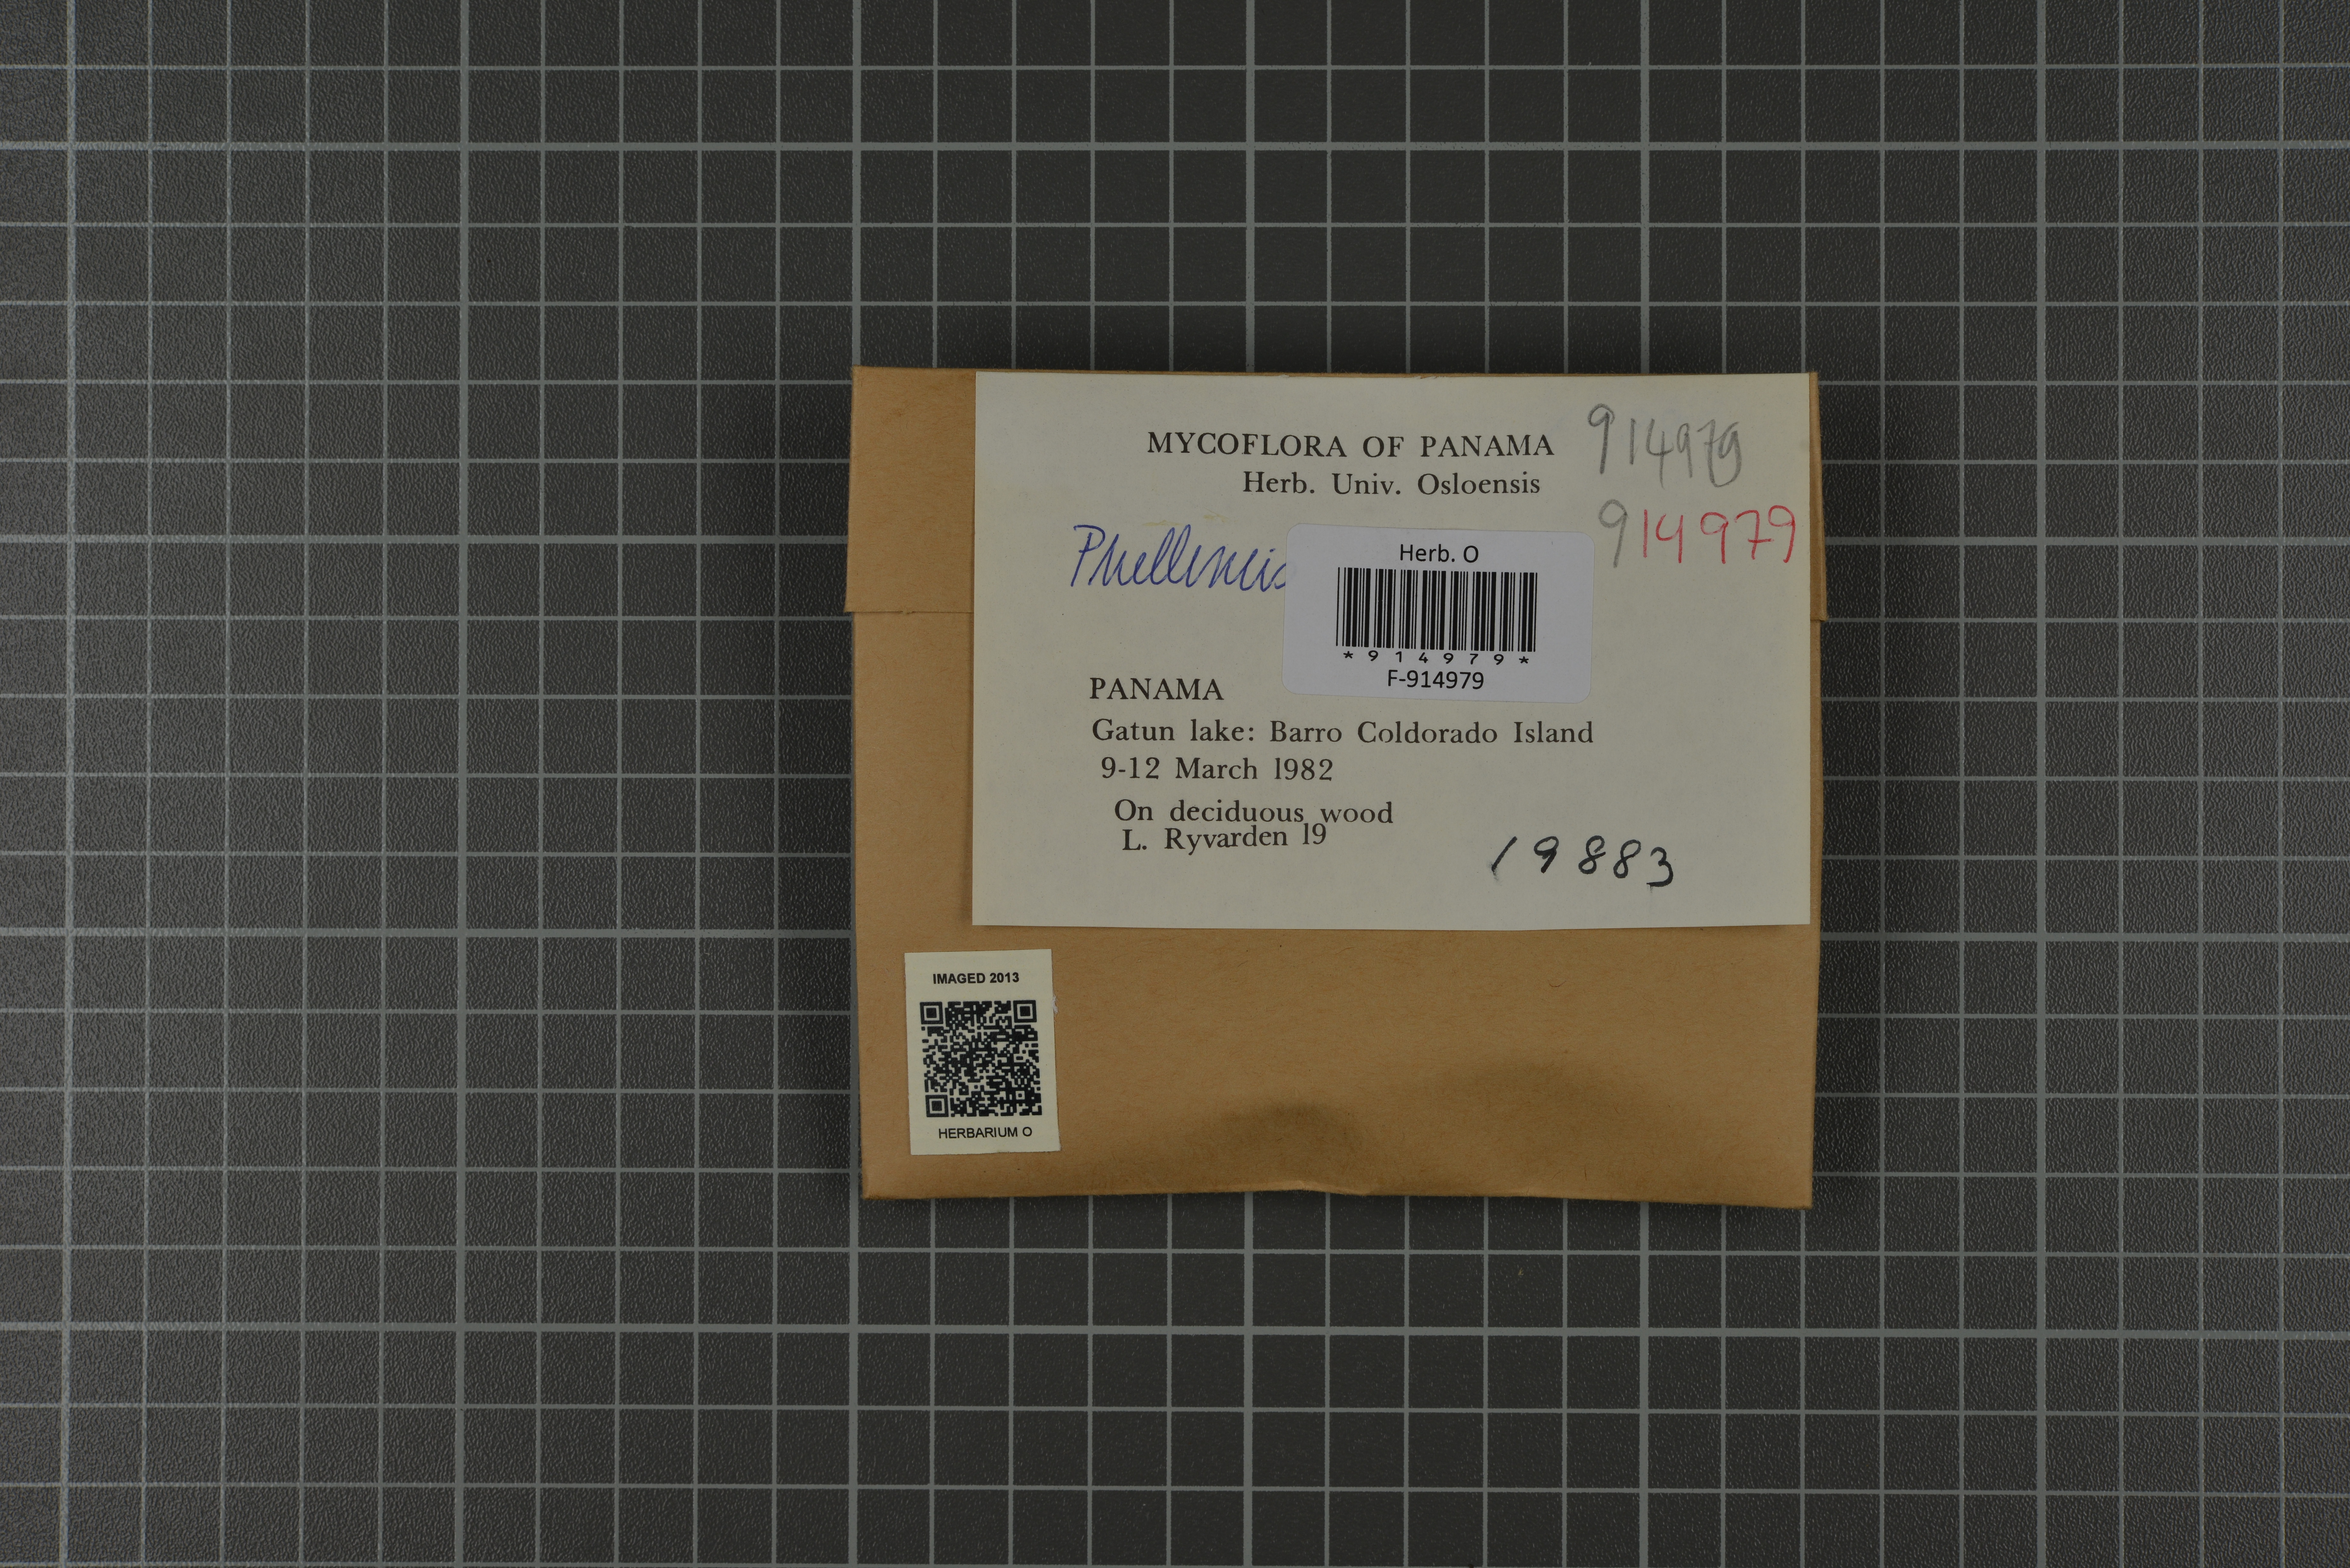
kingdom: Fungi
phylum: Basidiomycota
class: Agaricomycetes
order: Hymenochaetales
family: Hymenochaetaceae
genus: Phellinus
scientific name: Phellinus
